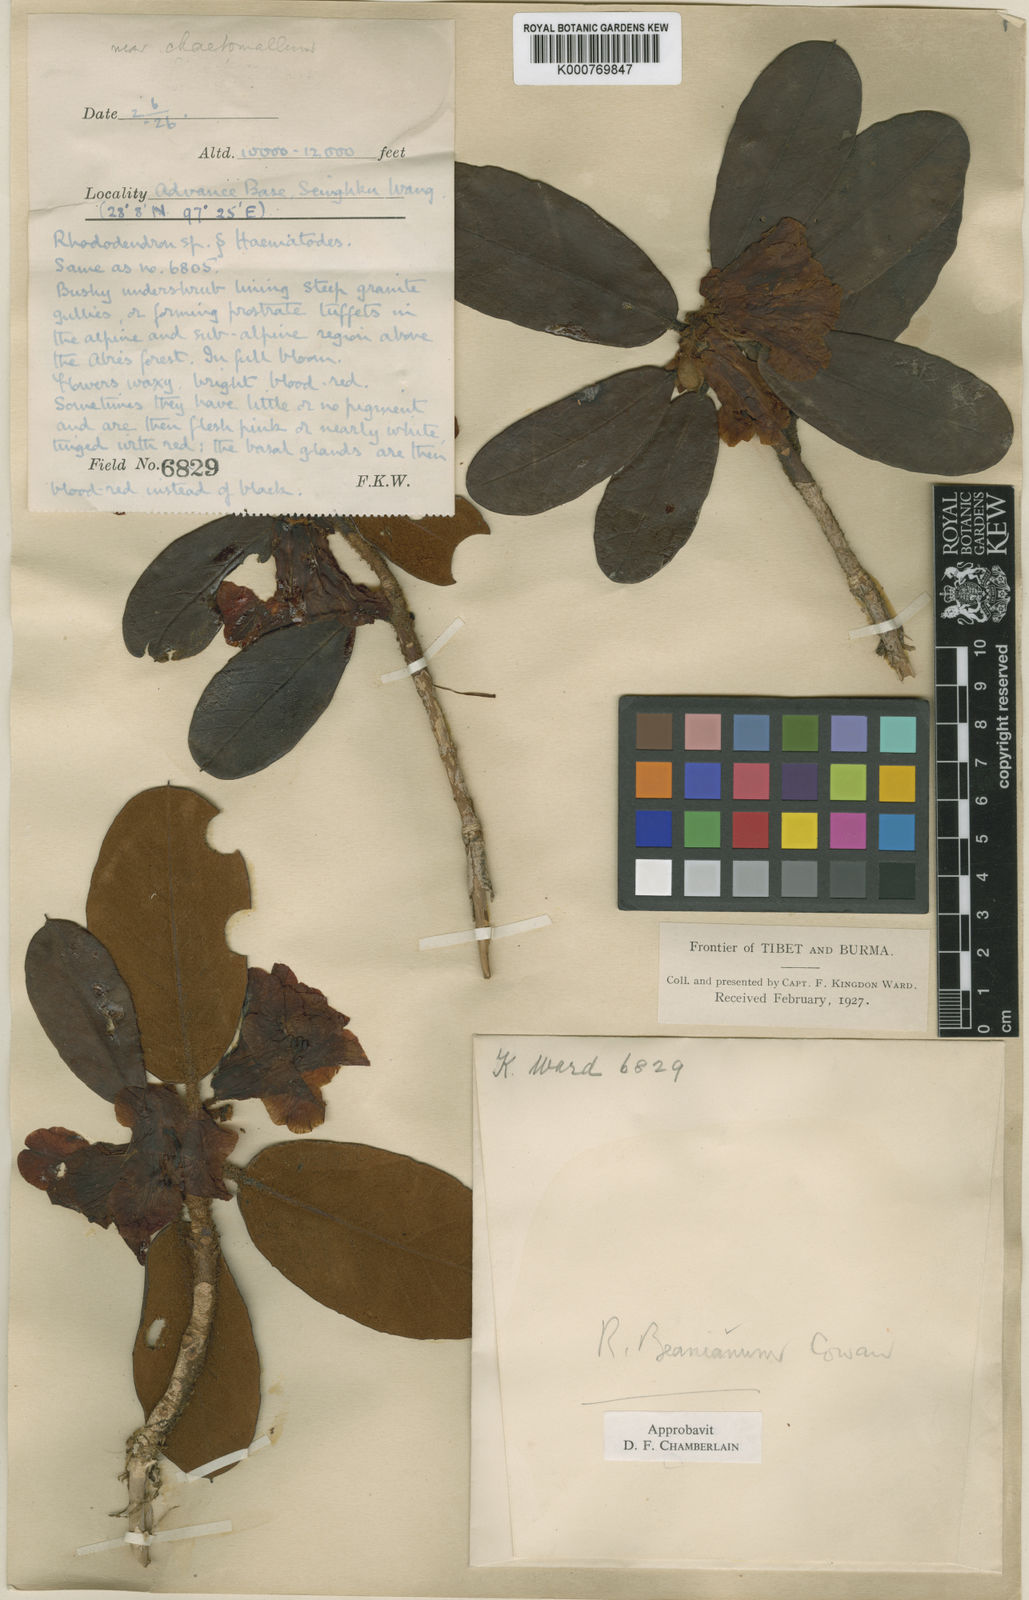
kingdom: Plantae
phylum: Tracheophyta
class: Magnoliopsida
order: Ericales
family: Ericaceae
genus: Rhododendron
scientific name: Rhododendron beanianum
